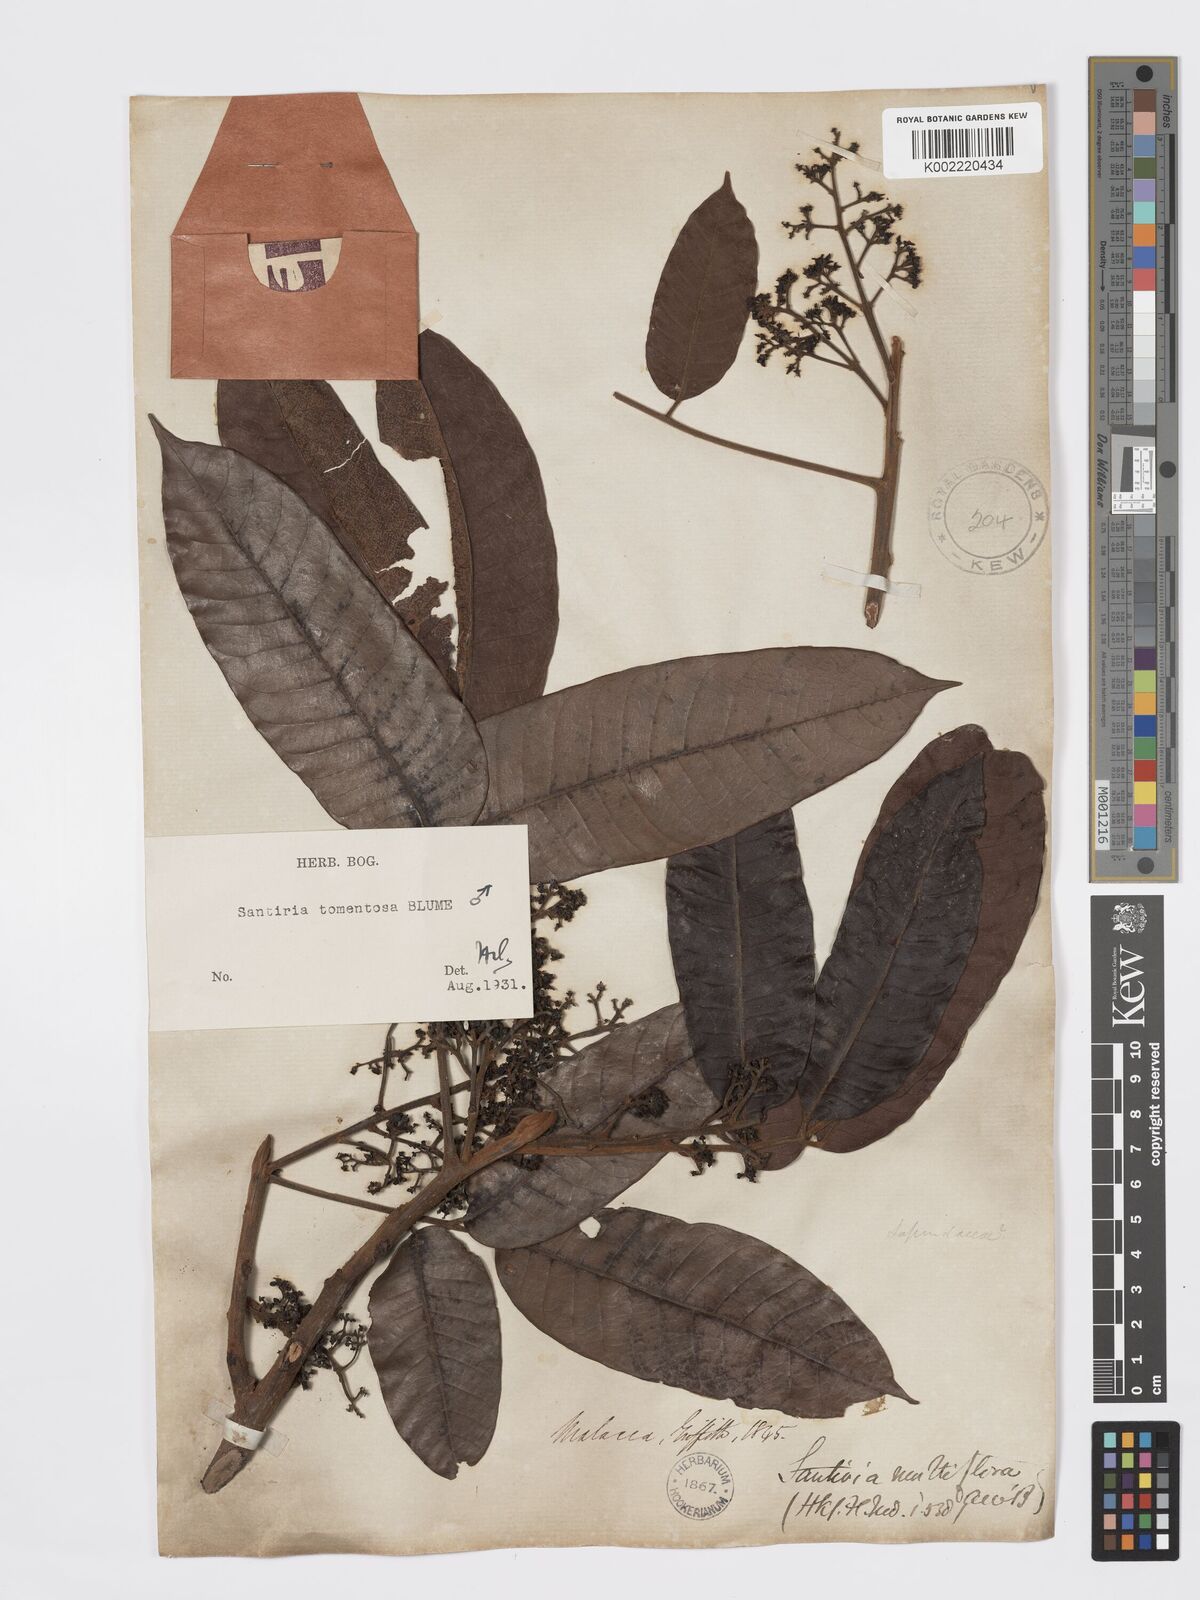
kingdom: Plantae
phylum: Tracheophyta
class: Magnoliopsida
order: Sapindales
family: Burseraceae
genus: Santiria
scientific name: Santiria tomentosa
